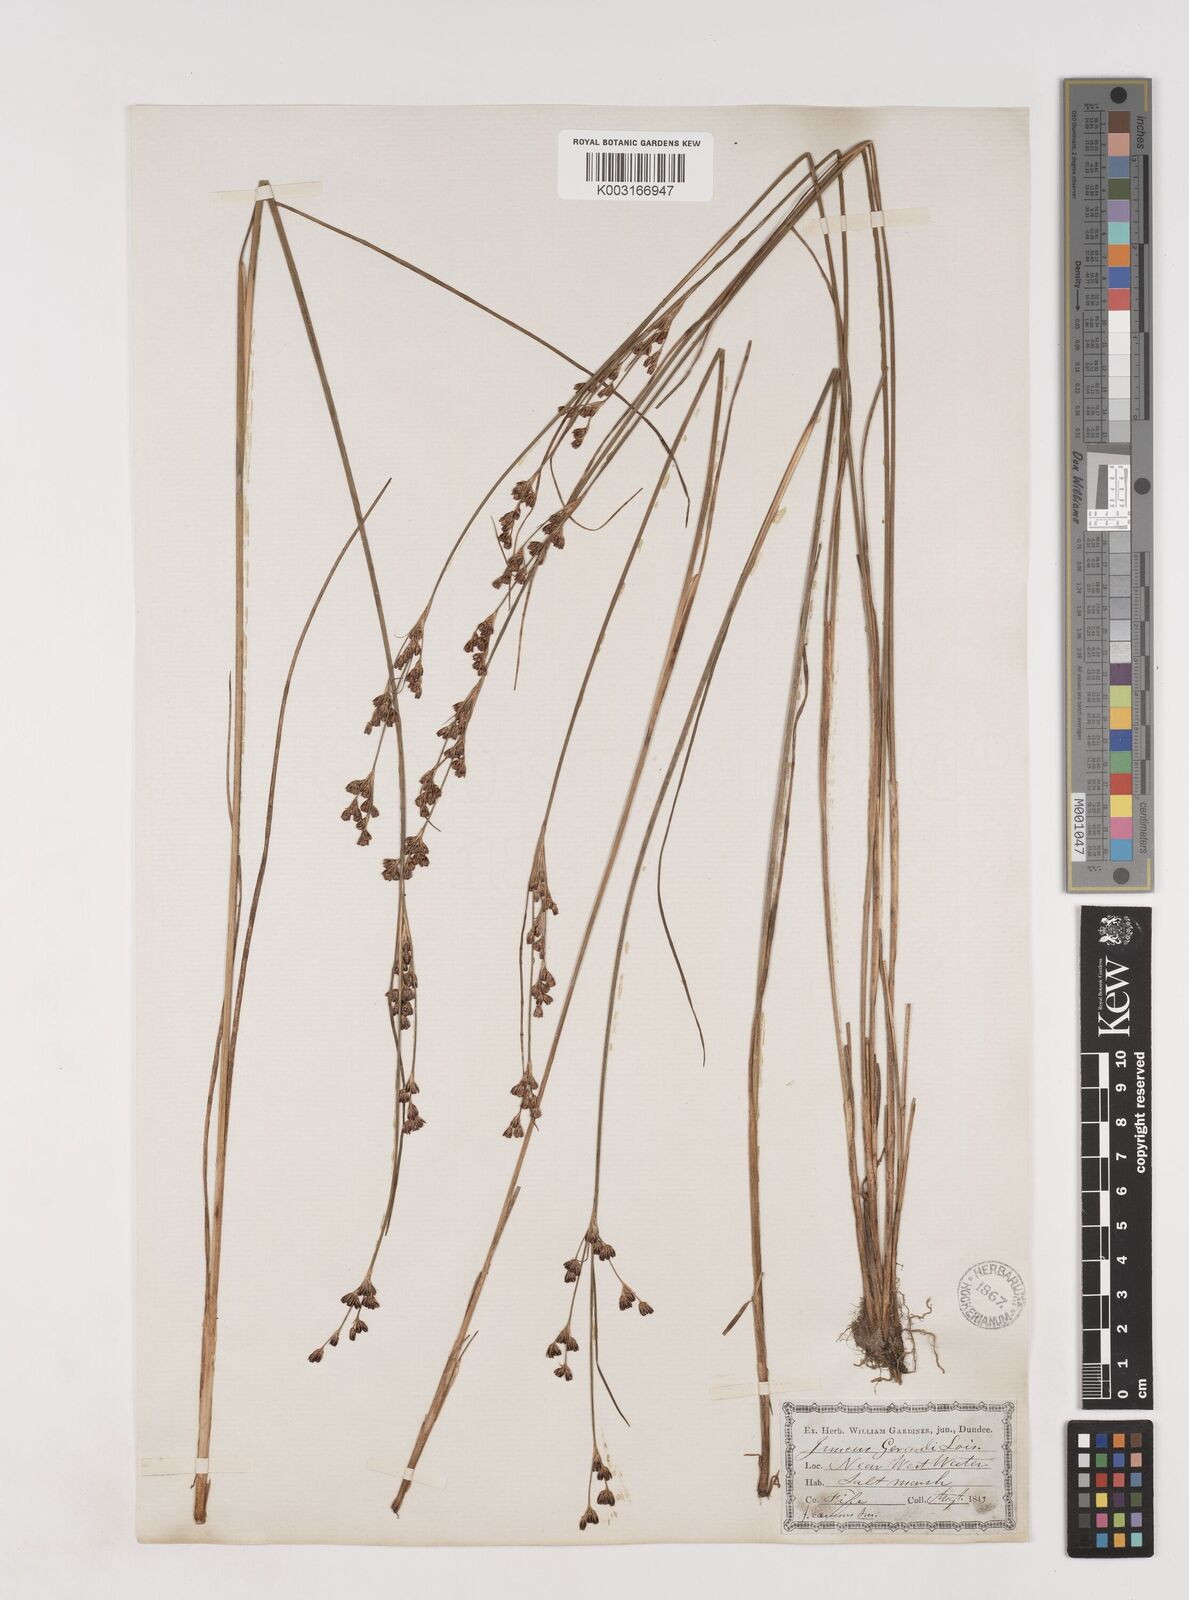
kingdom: Plantae
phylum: Tracheophyta
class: Liliopsida
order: Poales
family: Juncaceae
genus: Juncus
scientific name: Juncus gerardi
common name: Saltmarsh rush
